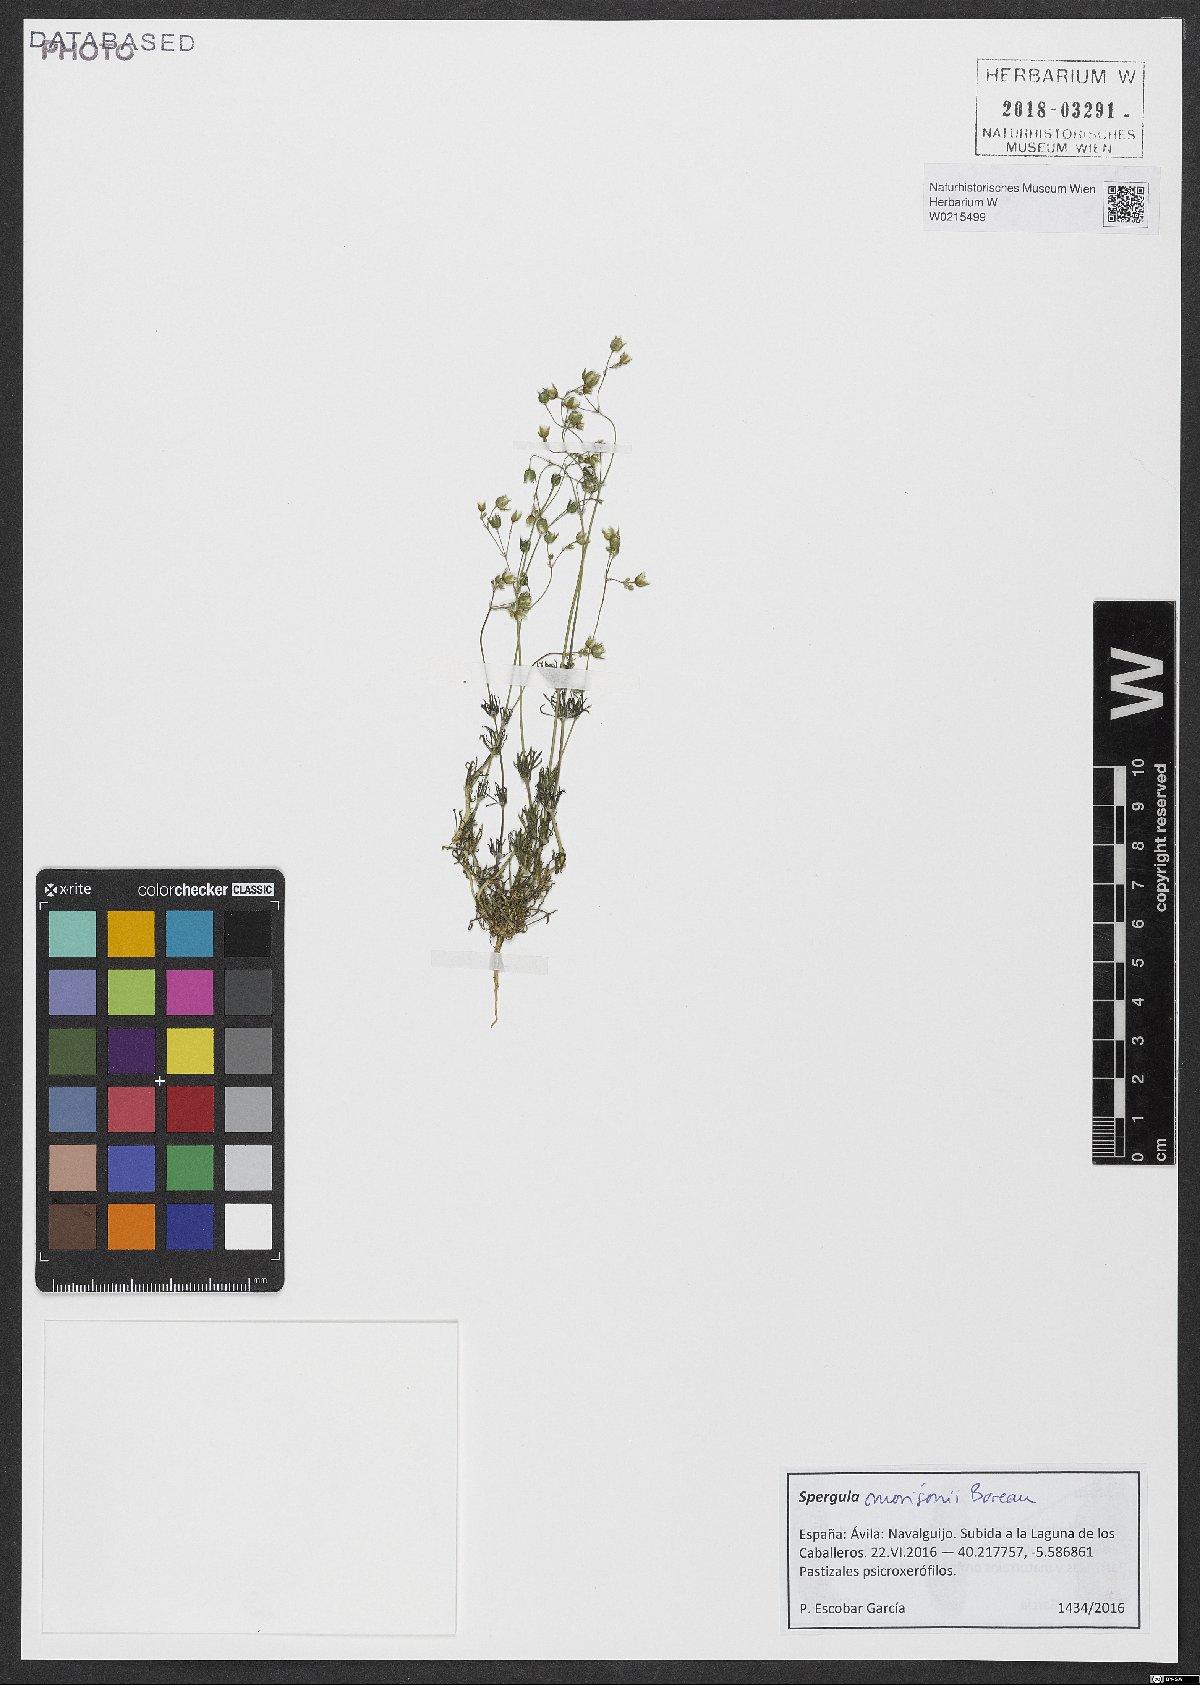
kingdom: Plantae
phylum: Tracheophyta
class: Magnoliopsida
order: Caryophyllales
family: Caryophyllaceae
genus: Spergula
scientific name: Spergula morisonii
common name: Pearlwort spurrey
